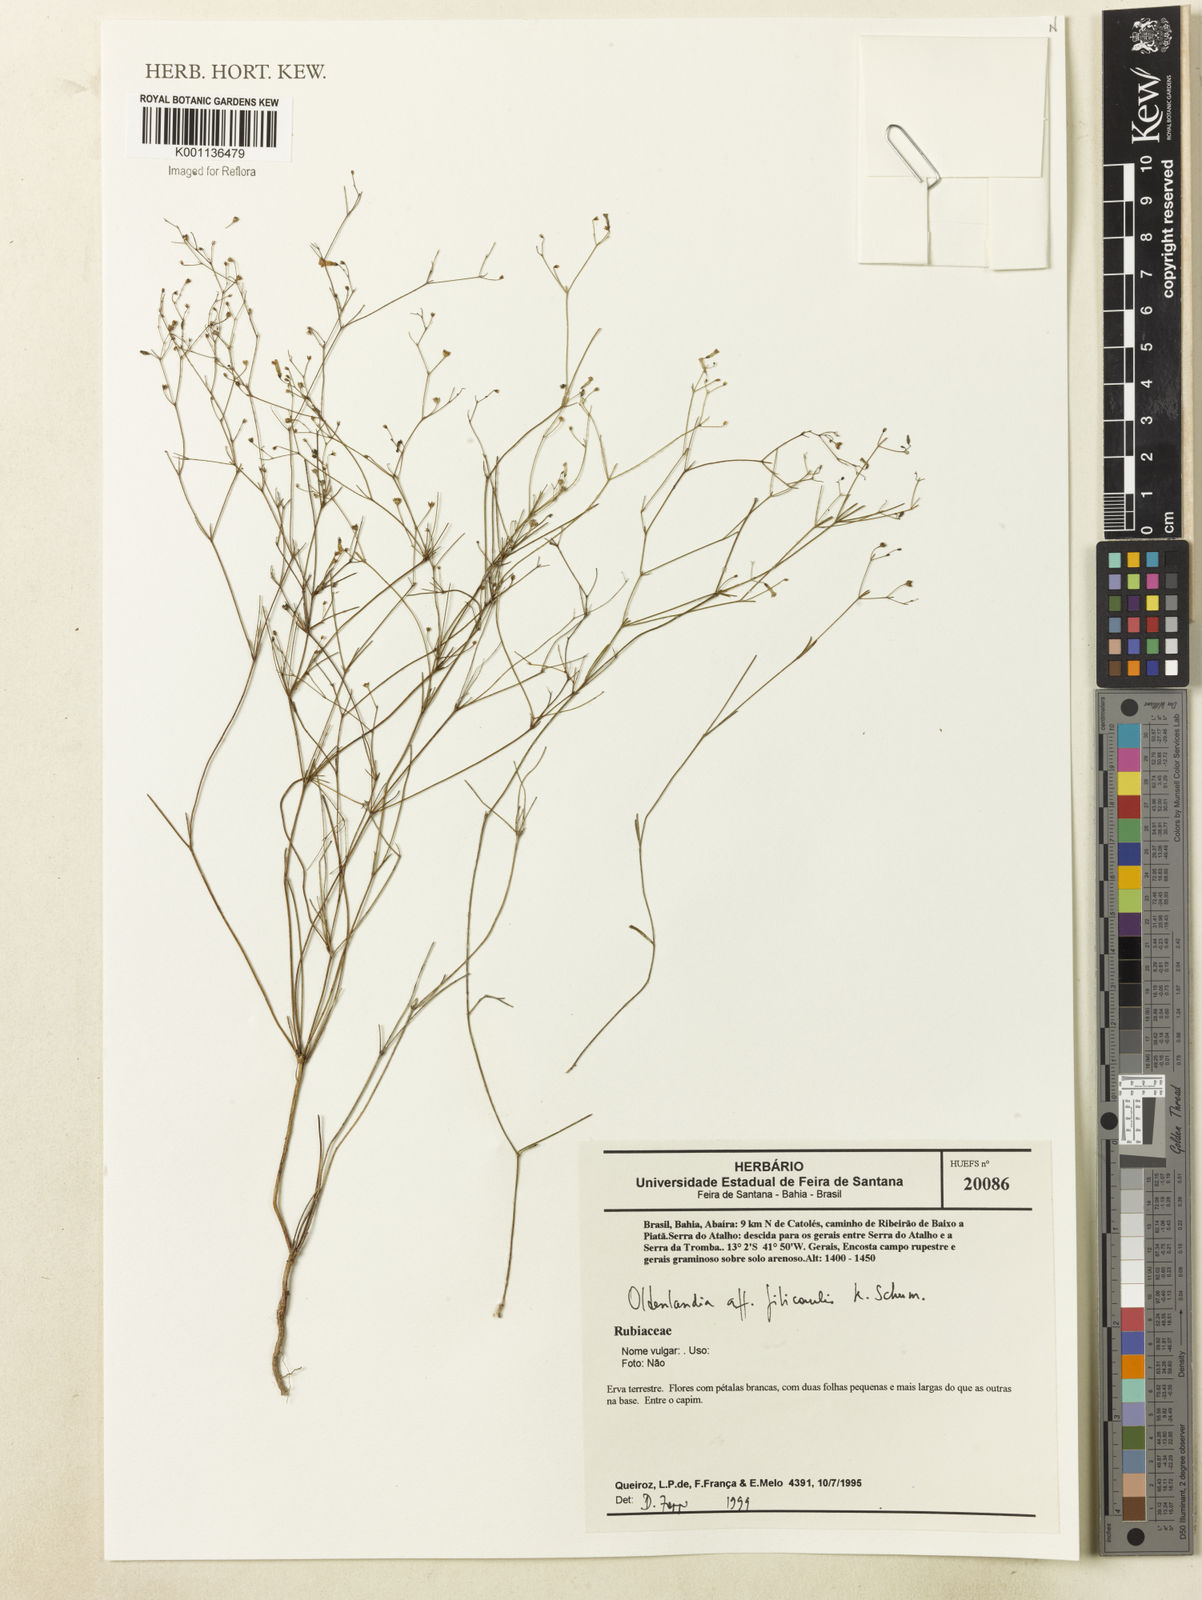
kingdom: Plantae
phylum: Tracheophyta
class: Magnoliopsida
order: Gentianales
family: Rubiaceae
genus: Oldenlandia
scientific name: Oldenlandia filicaulis
